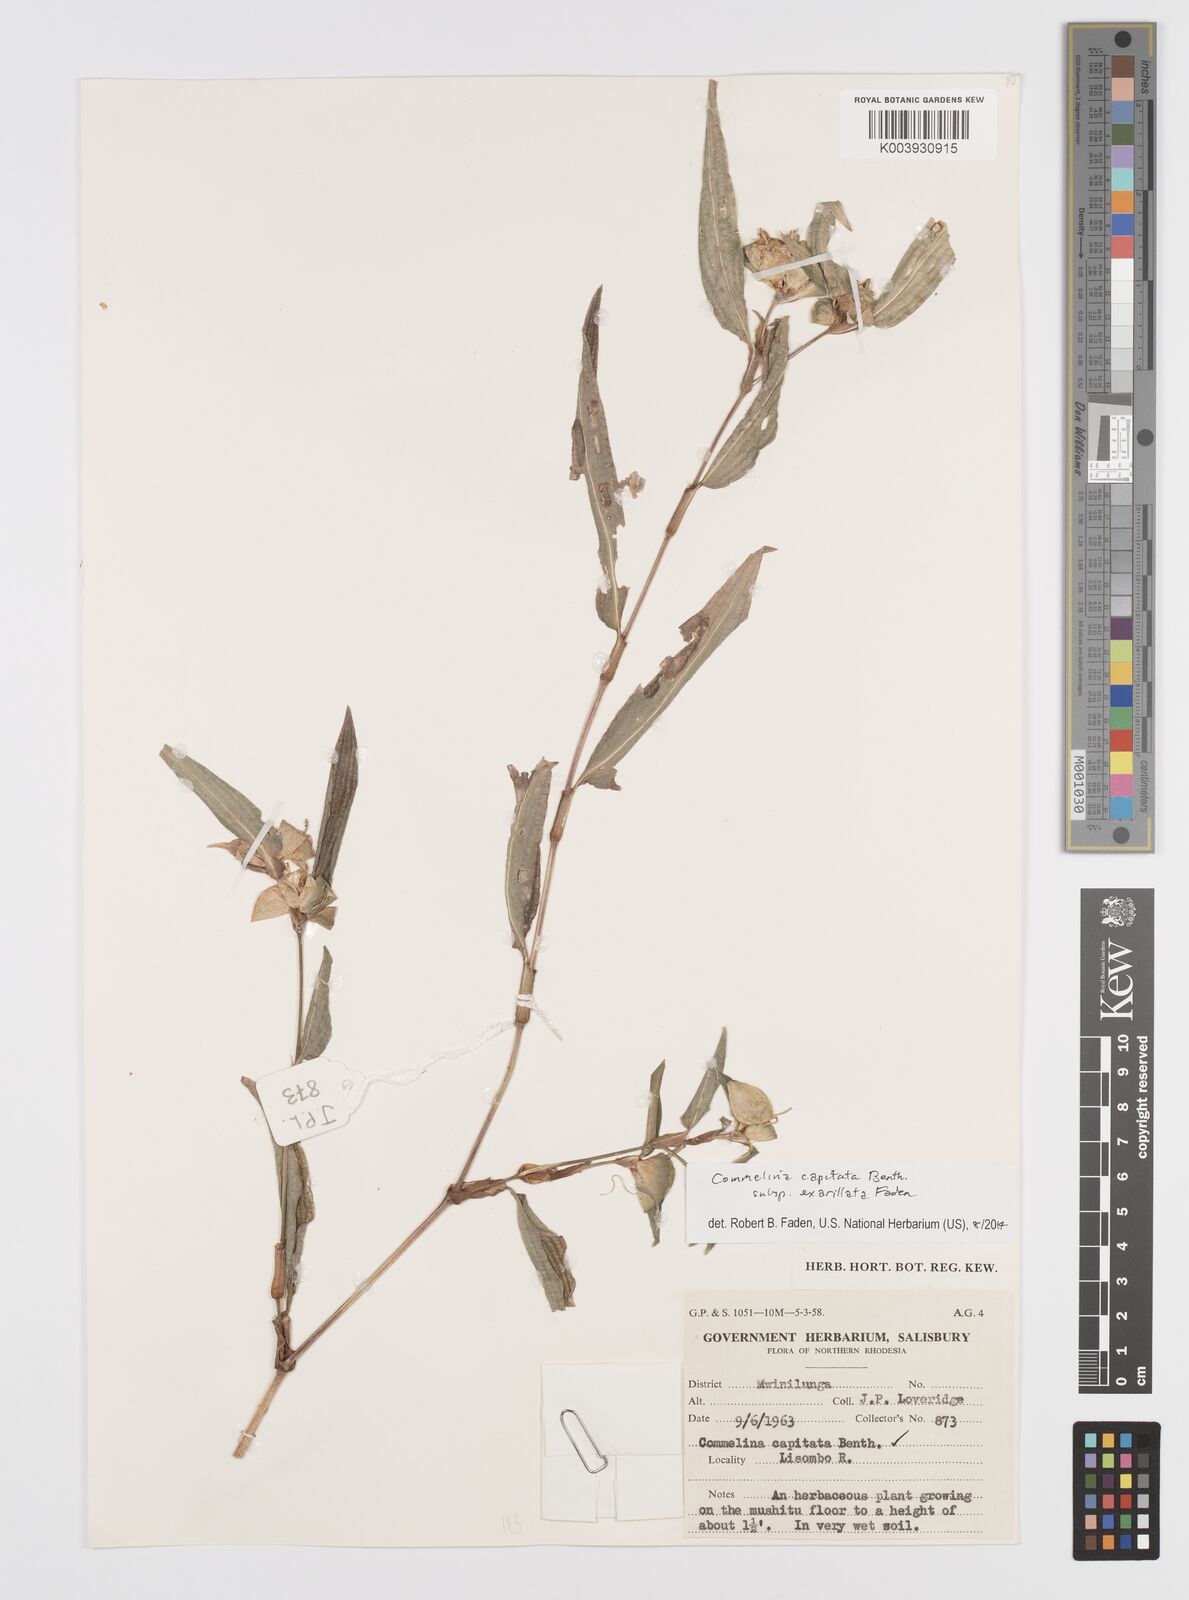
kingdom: Plantae
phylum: Tracheophyta
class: Liliopsida
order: Commelinales
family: Commelinaceae
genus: Commelina
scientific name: Commelina capitata
